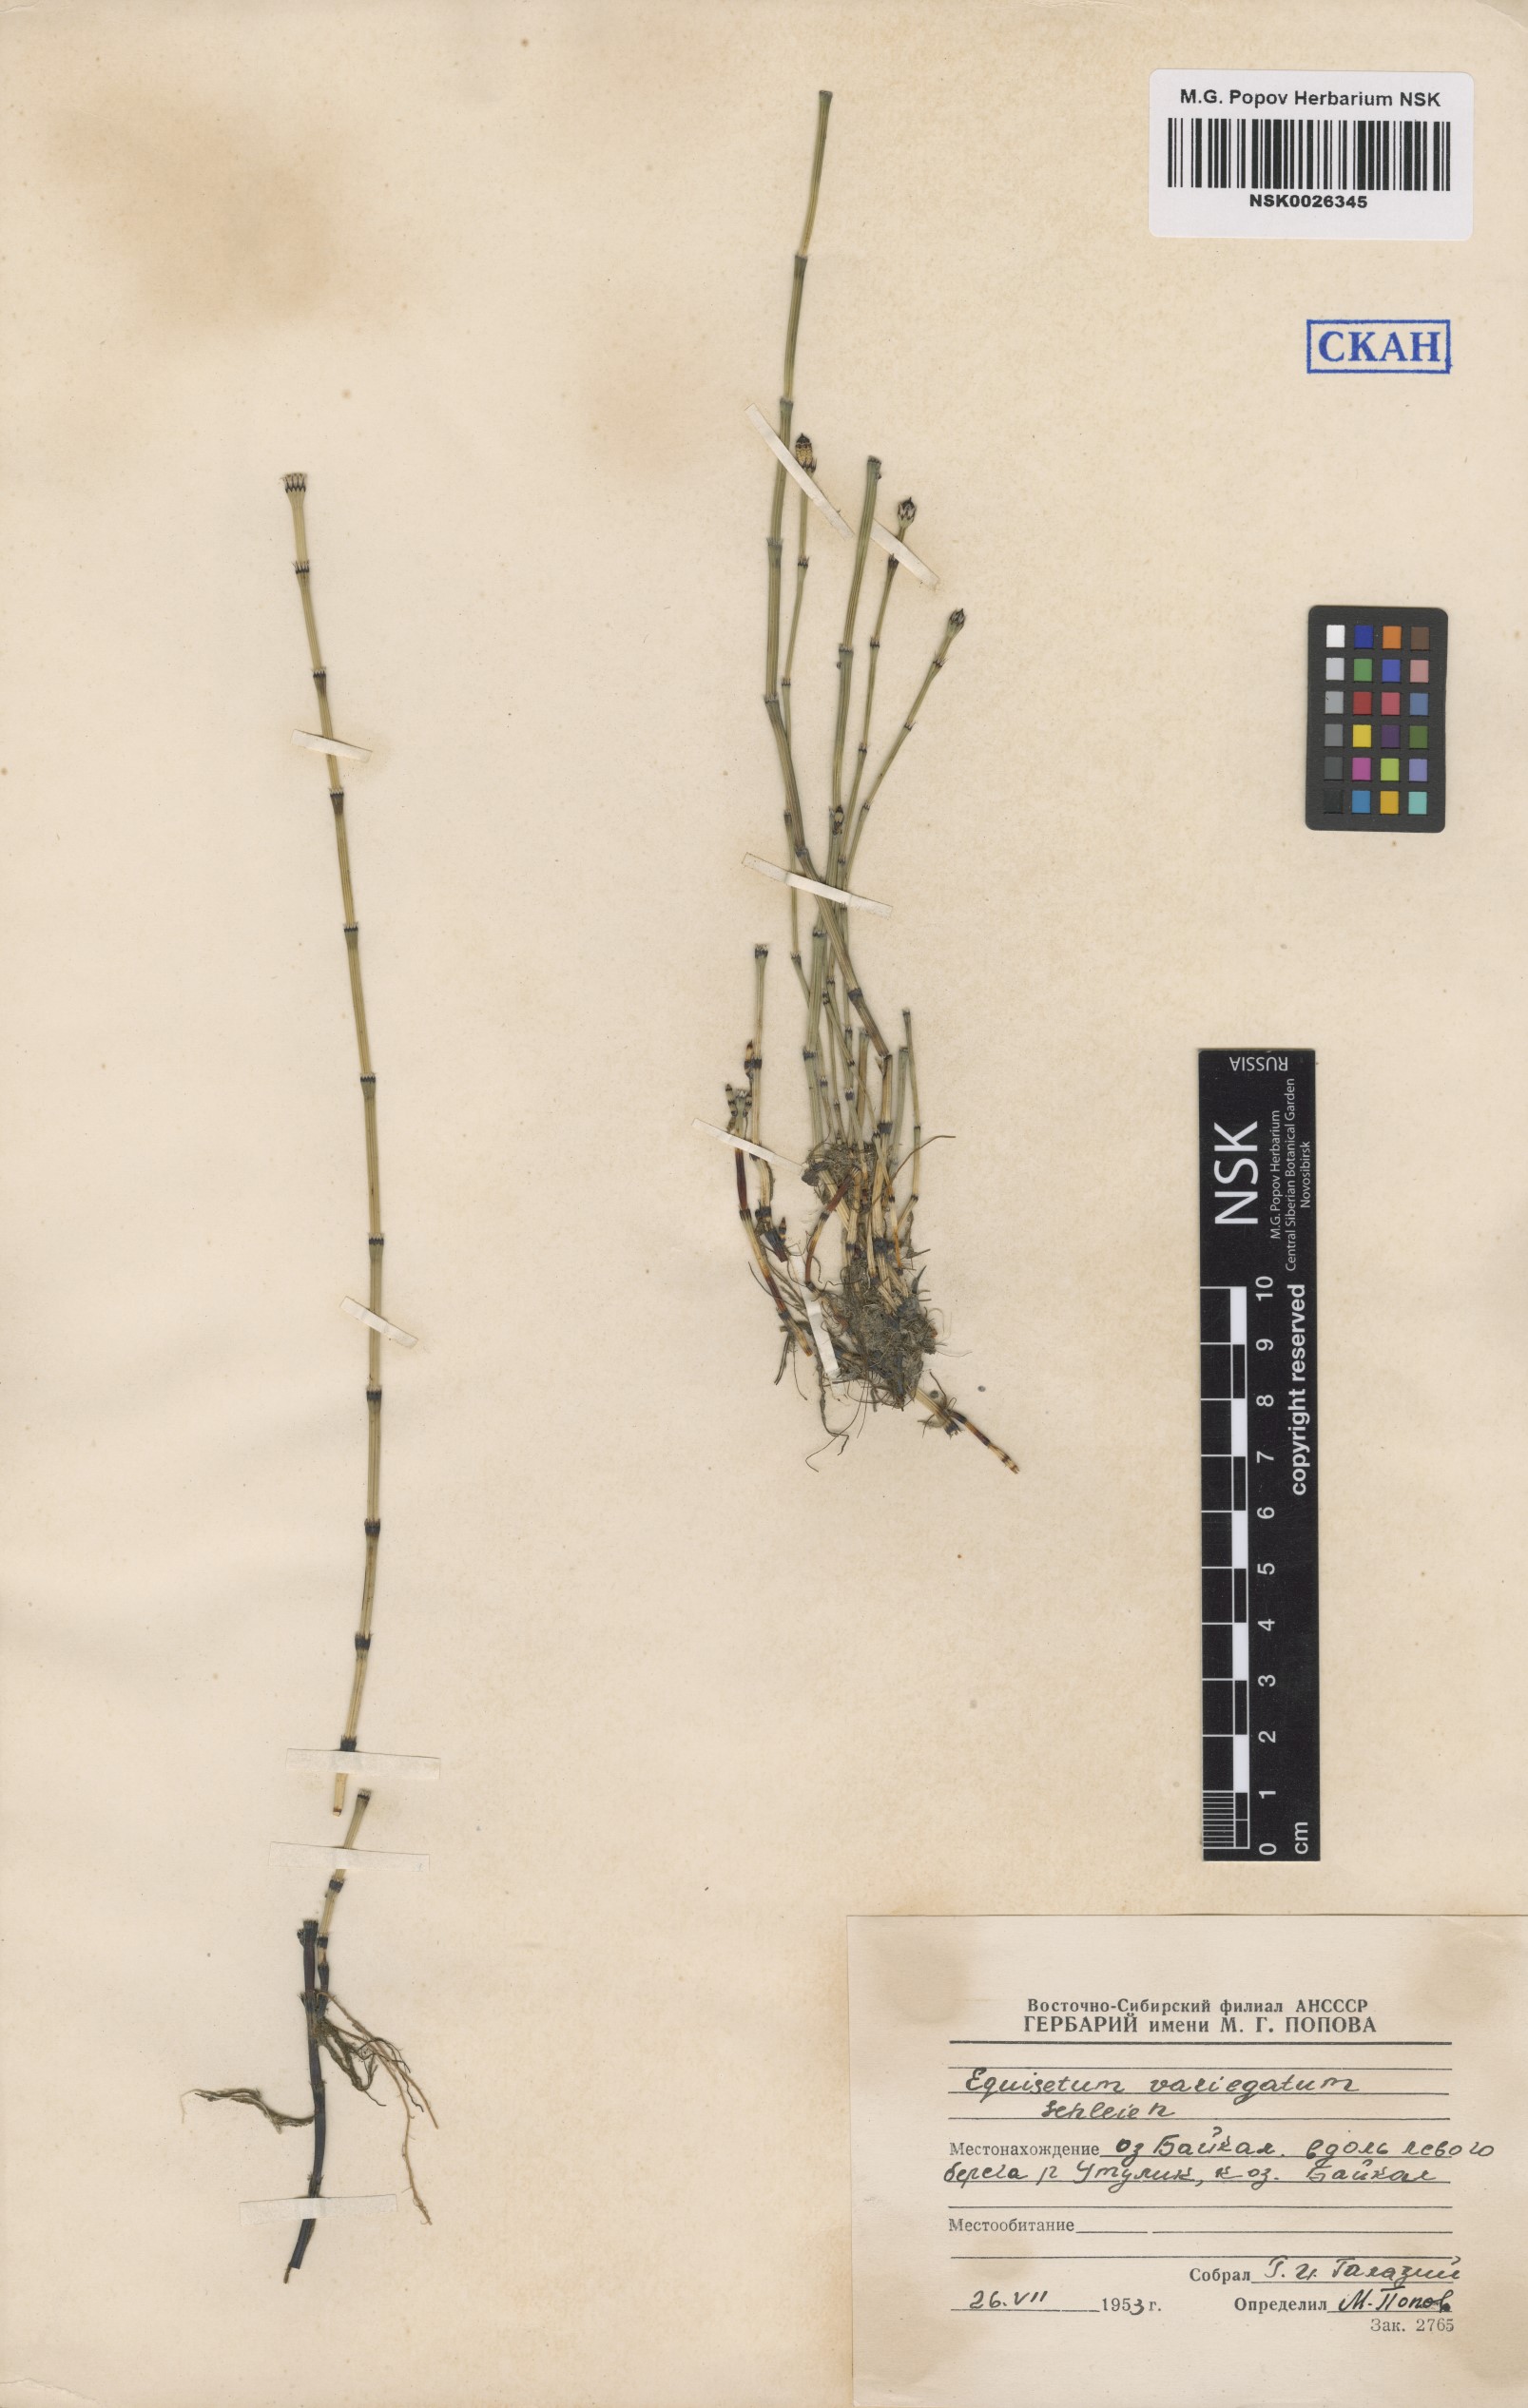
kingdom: Plantae
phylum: Tracheophyta
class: Polypodiopsida
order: Equisetales
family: Equisetaceae
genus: Equisetum
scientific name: Equisetum variegatum
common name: Variegated horsetail
